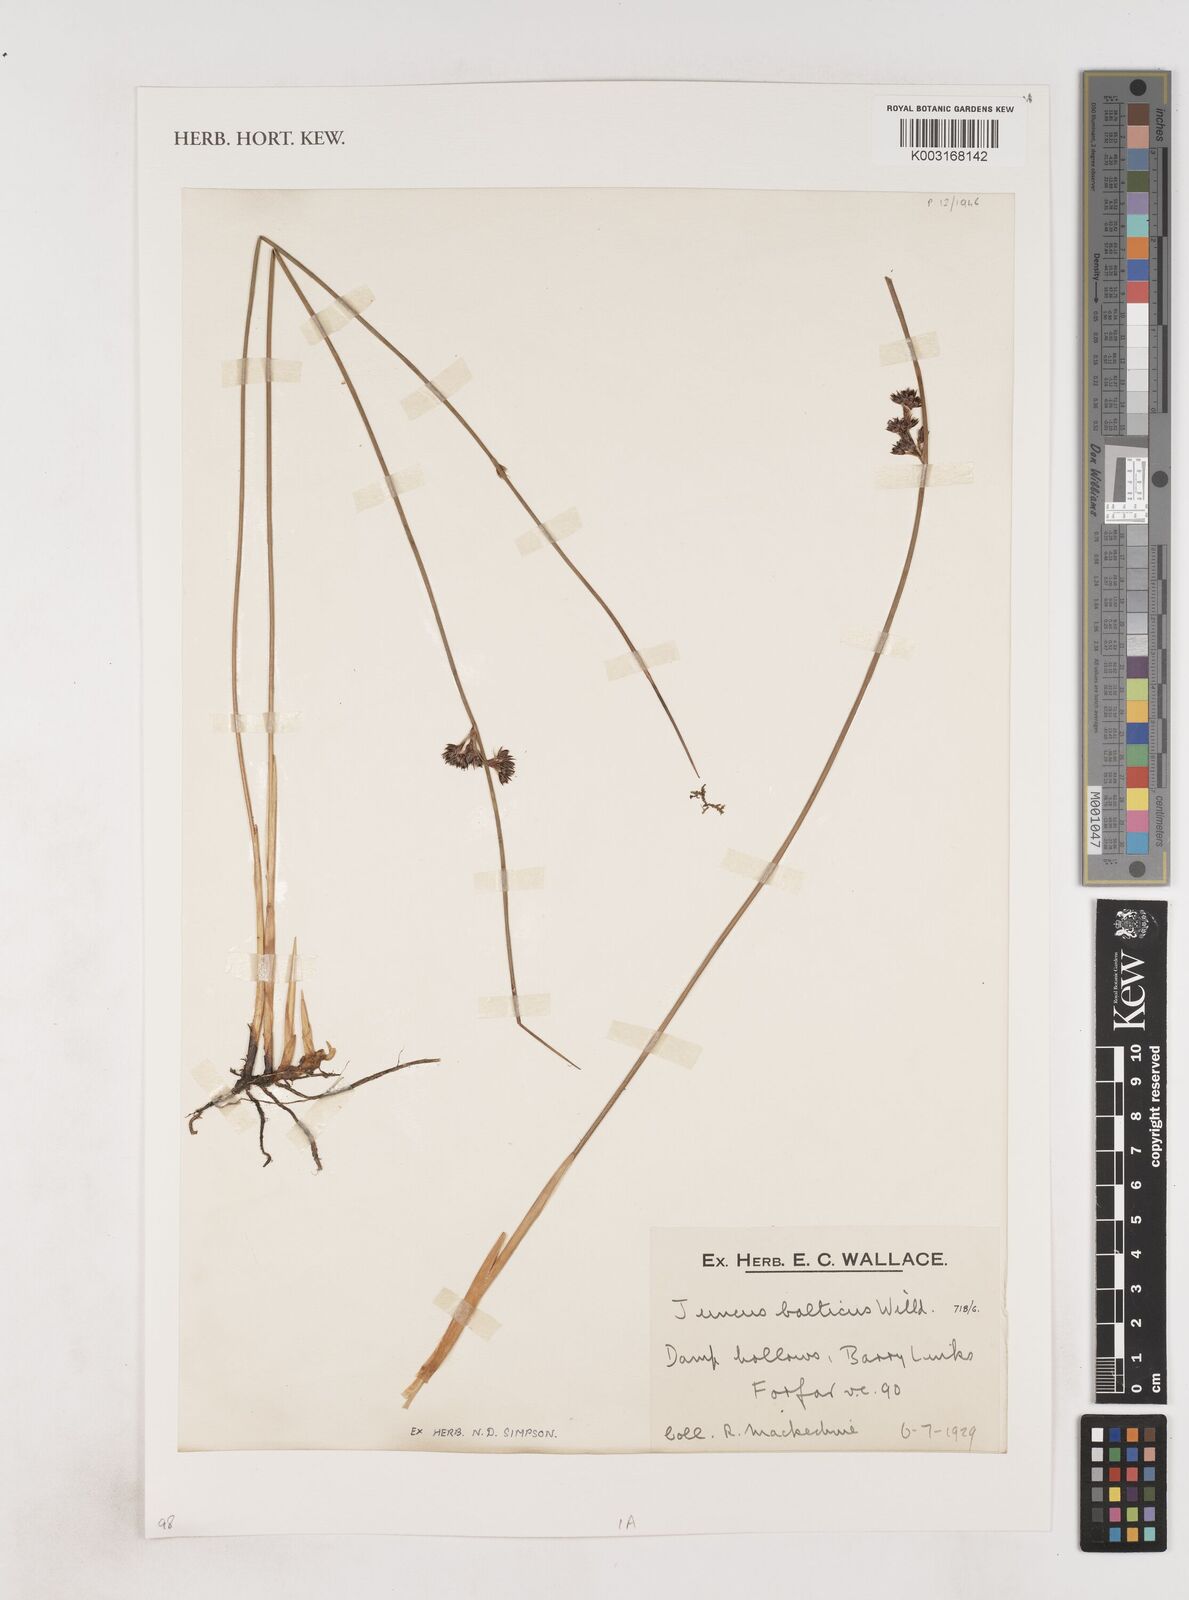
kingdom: Plantae
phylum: Tracheophyta
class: Liliopsida
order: Poales
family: Juncaceae
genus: Juncus
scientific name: Juncus balticus
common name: Baltic rush
